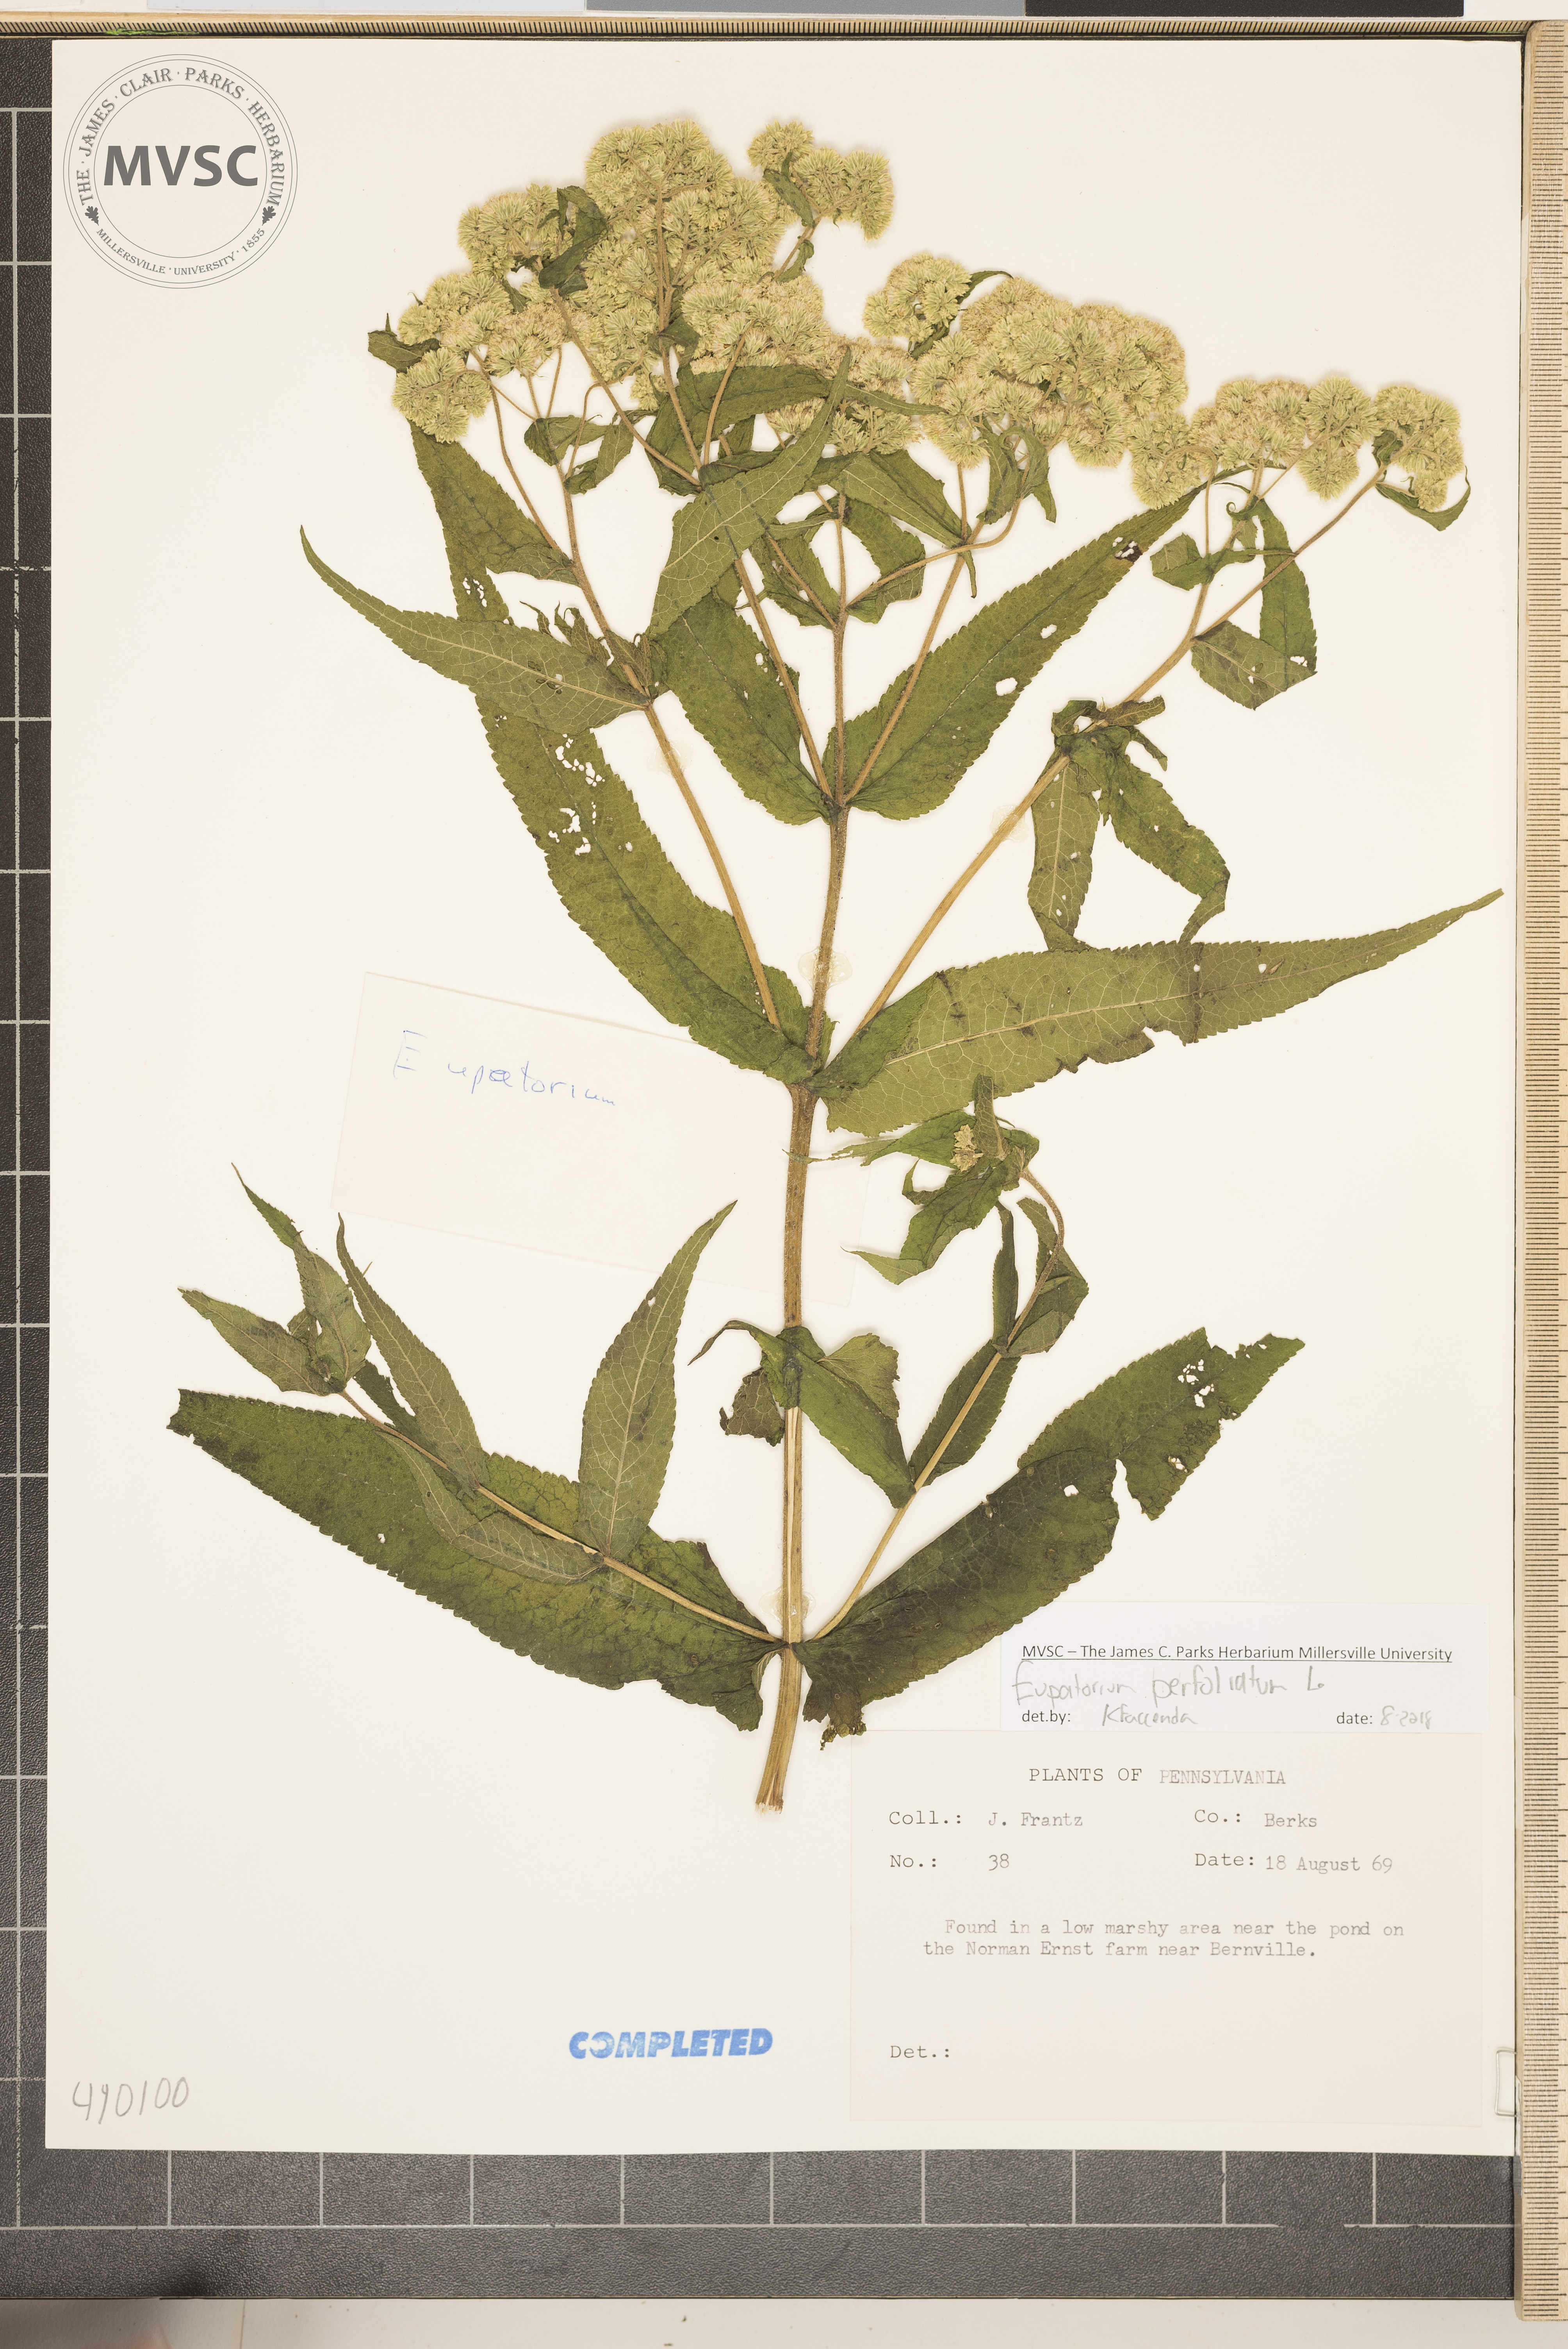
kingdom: Plantae
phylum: Tracheophyta
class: Magnoliopsida
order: Asterales
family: Asteraceae
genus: Eupatorium
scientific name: Eupatorium perfoliatum
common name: Boneset
